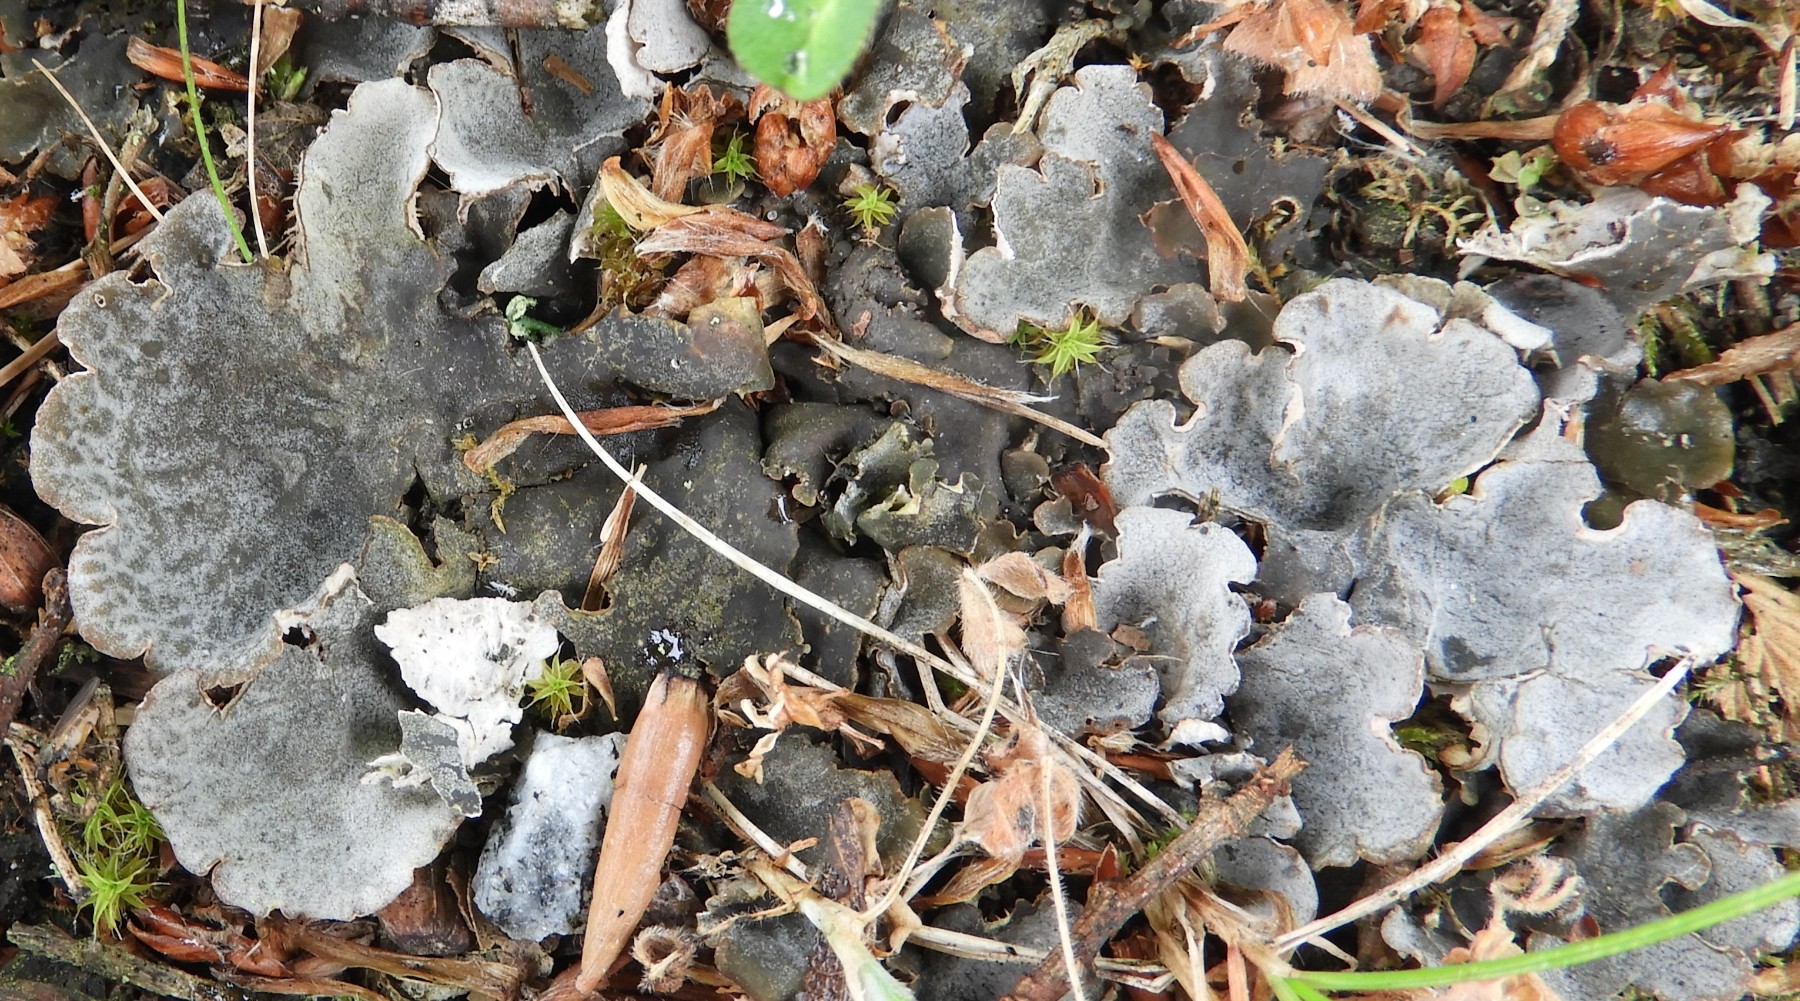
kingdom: Fungi
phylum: Ascomycota
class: Lecanoromycetes
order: Peltigerales
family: Peltigeraceae
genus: Peltigera
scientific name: Peltigera canina
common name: hunde-skjoldlav
